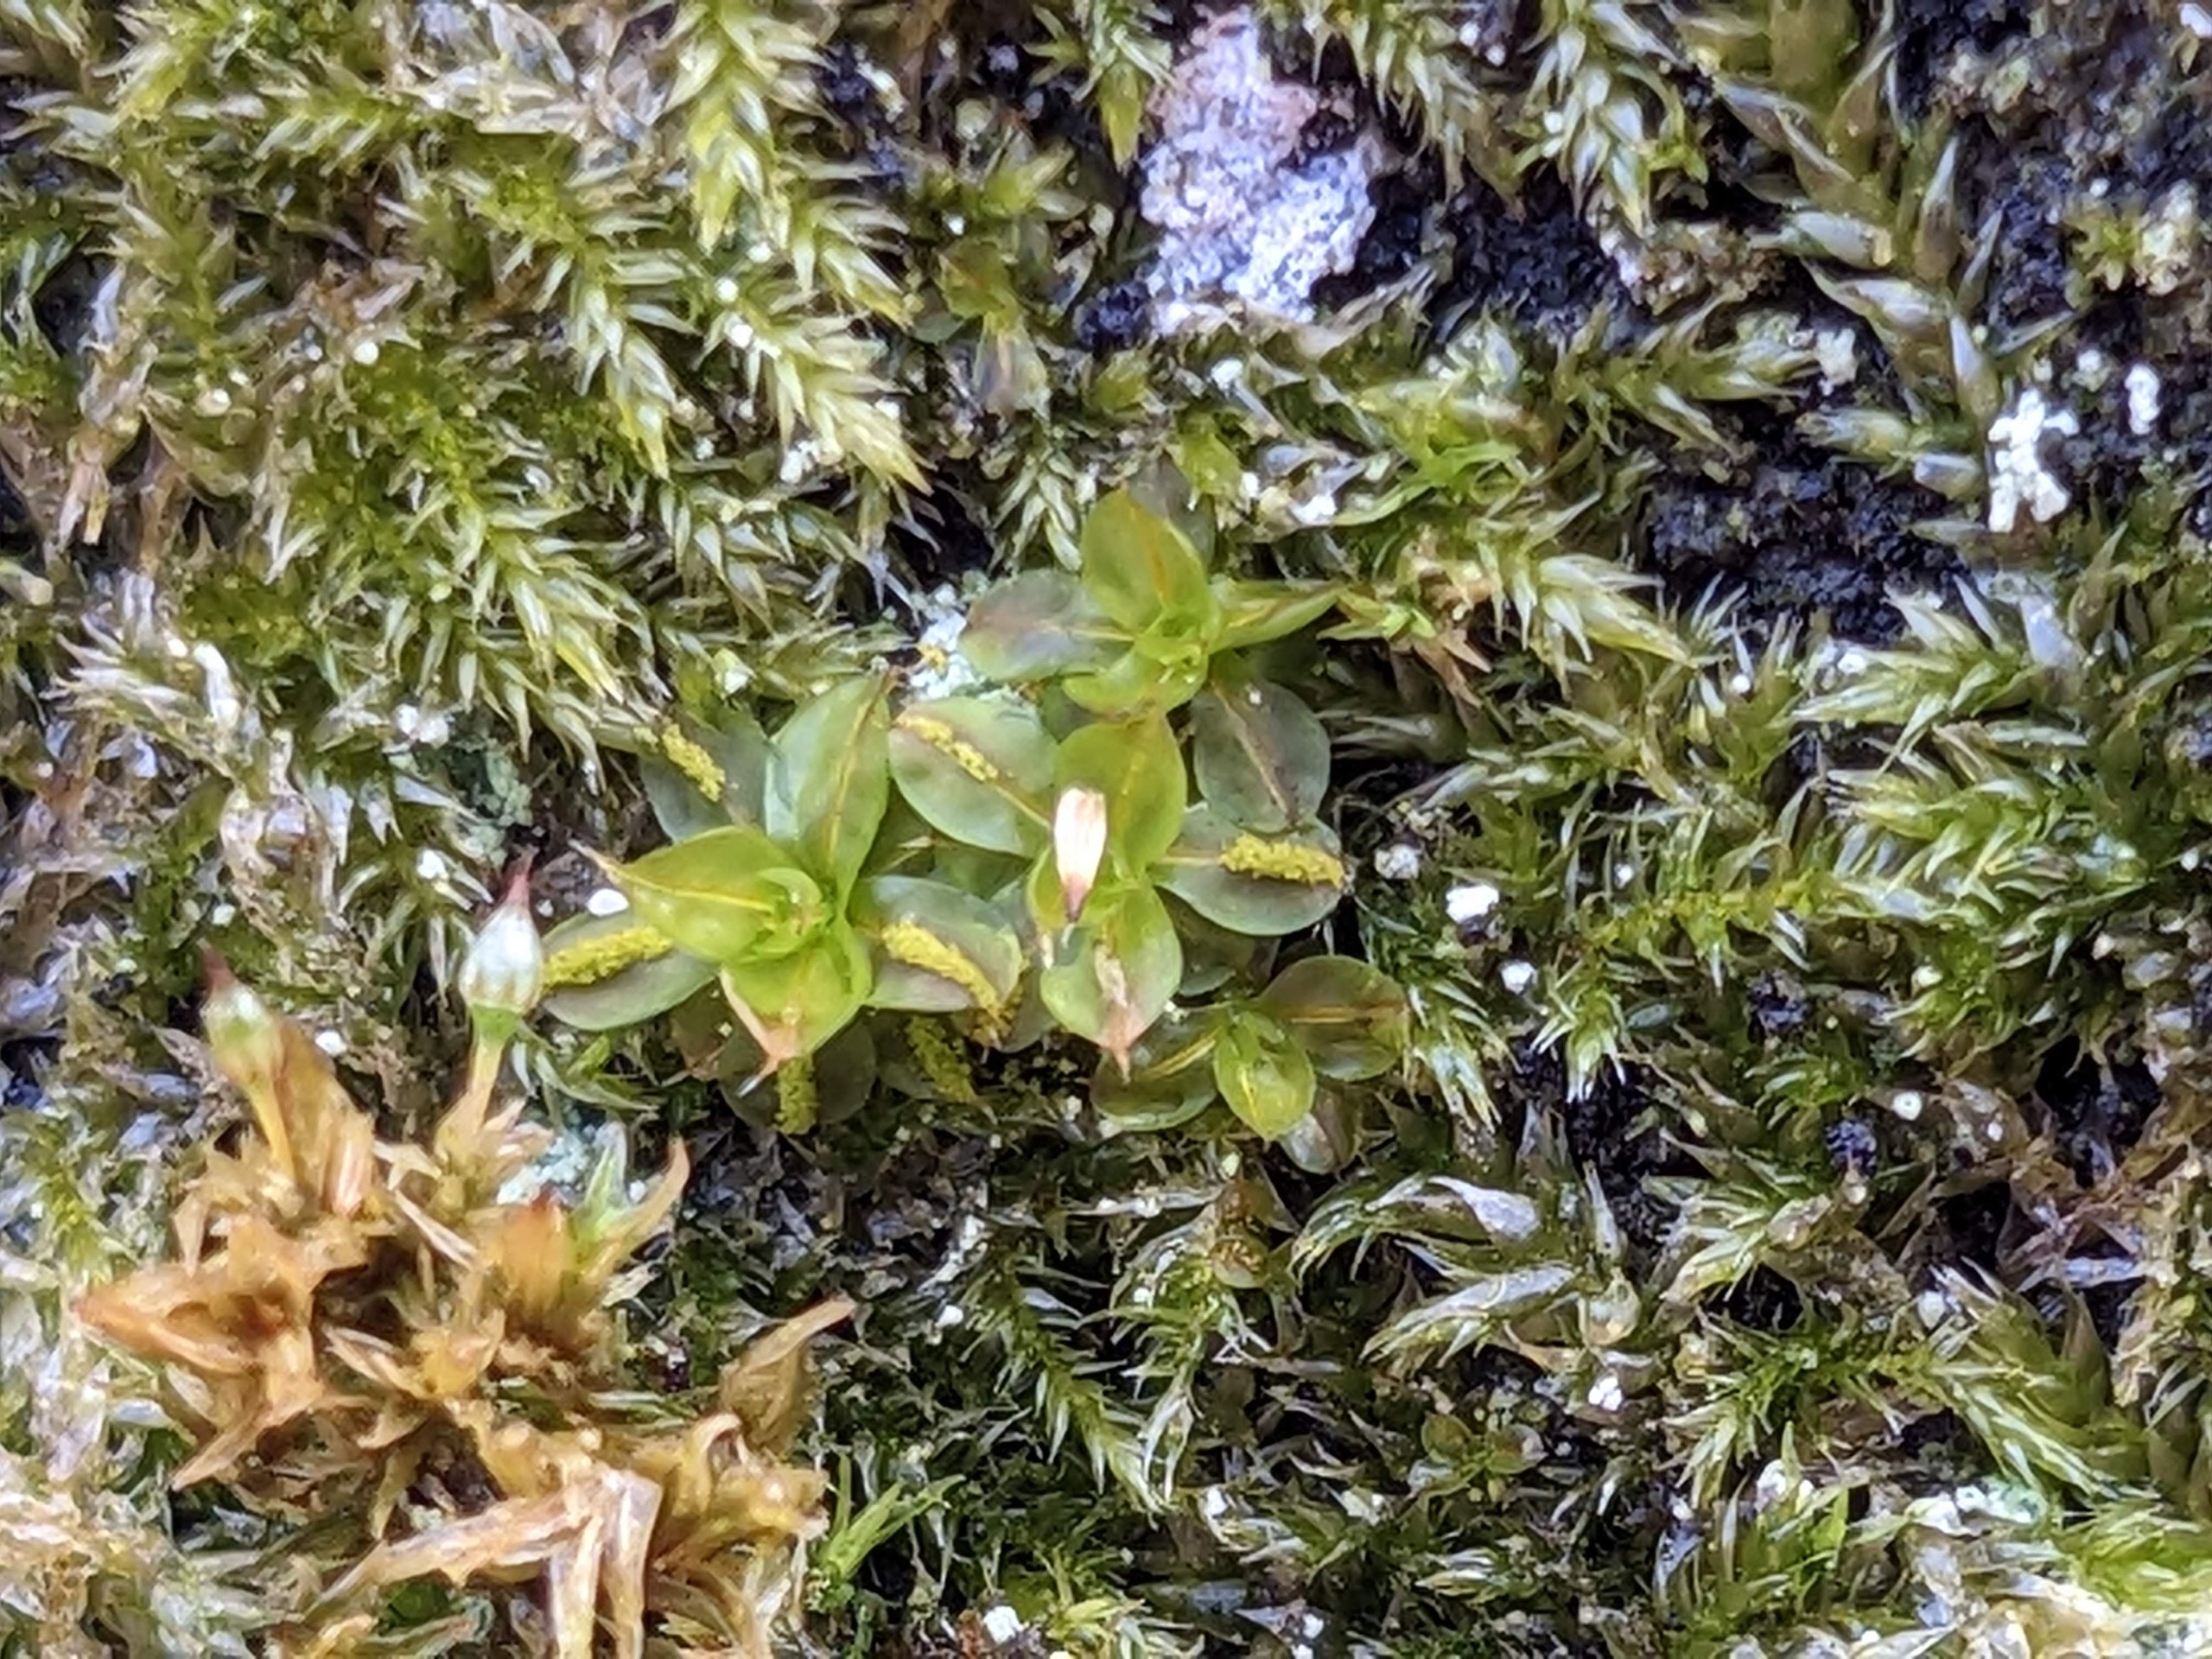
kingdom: Plantae
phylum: Bryophyta
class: Bryopsida
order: Pottiales
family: Pottiaceae
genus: Syntrichia
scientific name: Syntrichia papillosa
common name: Bark-hårstjerne
